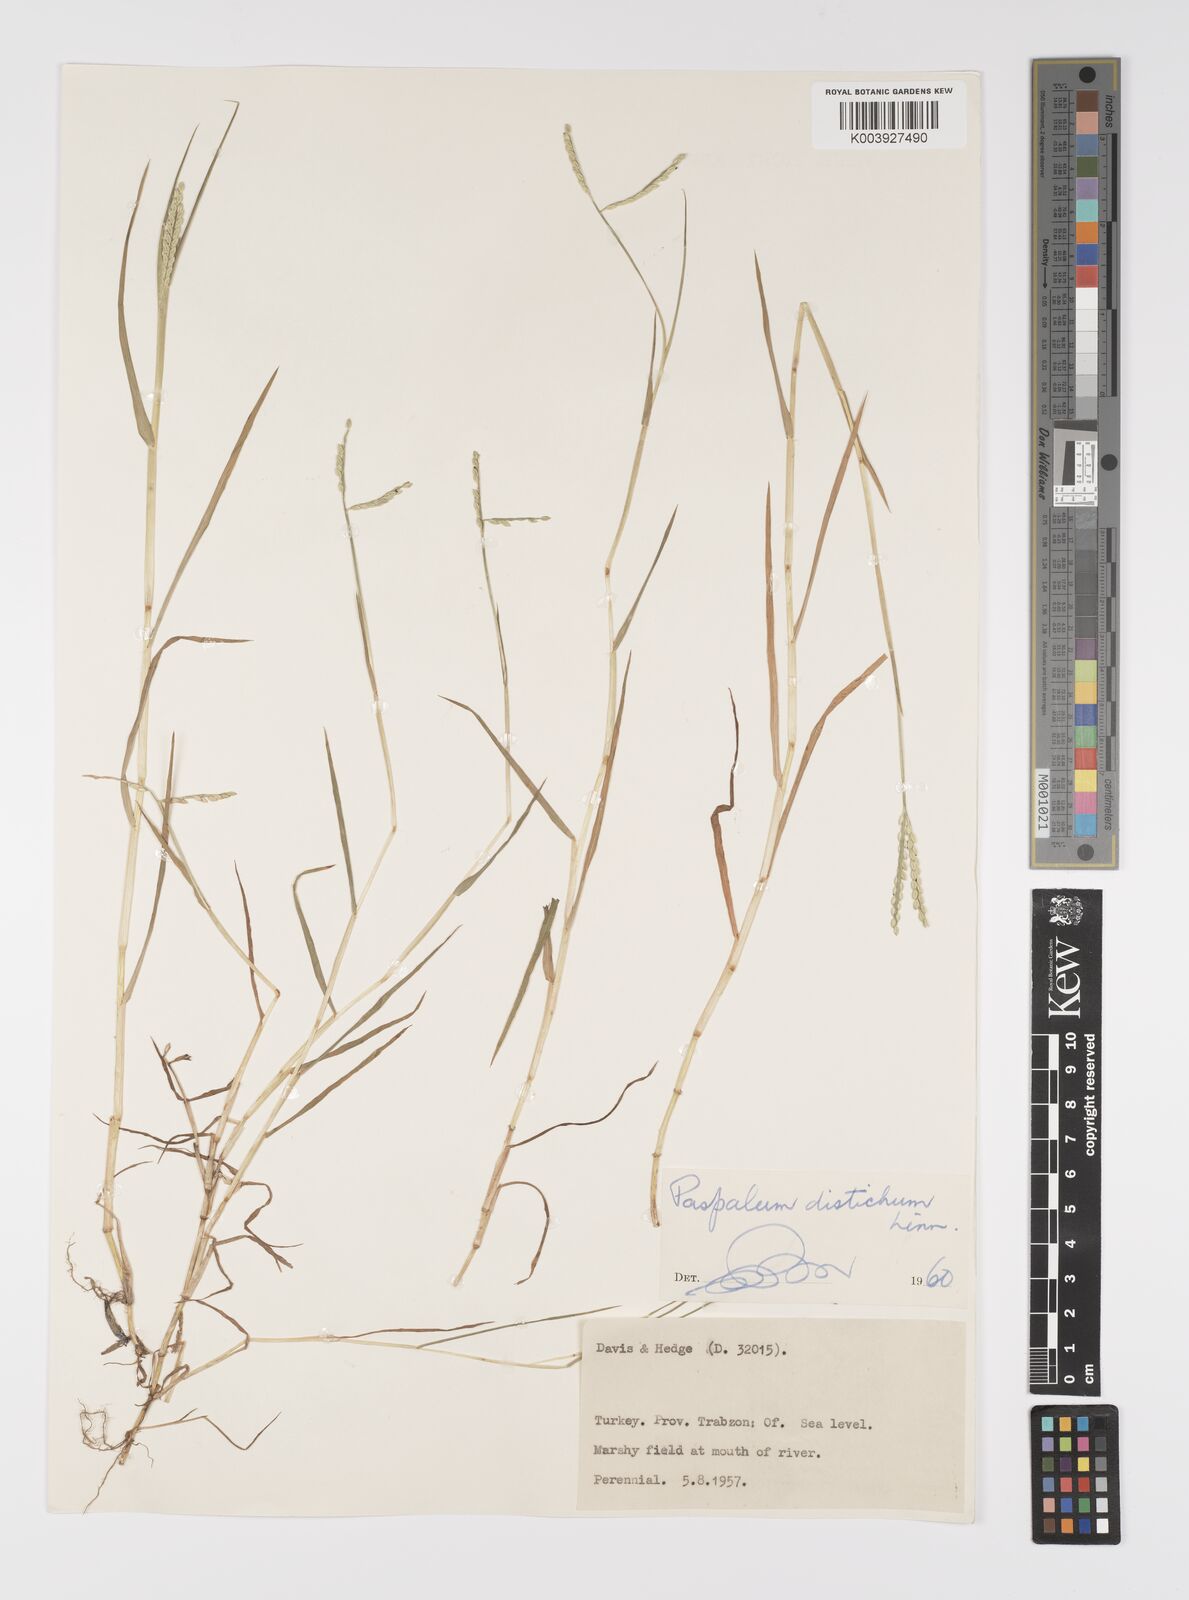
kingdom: Plantae
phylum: Tracheophyta
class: Liliopsida
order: Poales
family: Poaceae
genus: Paspalum
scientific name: Paspalum distichum
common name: Knotgrass
